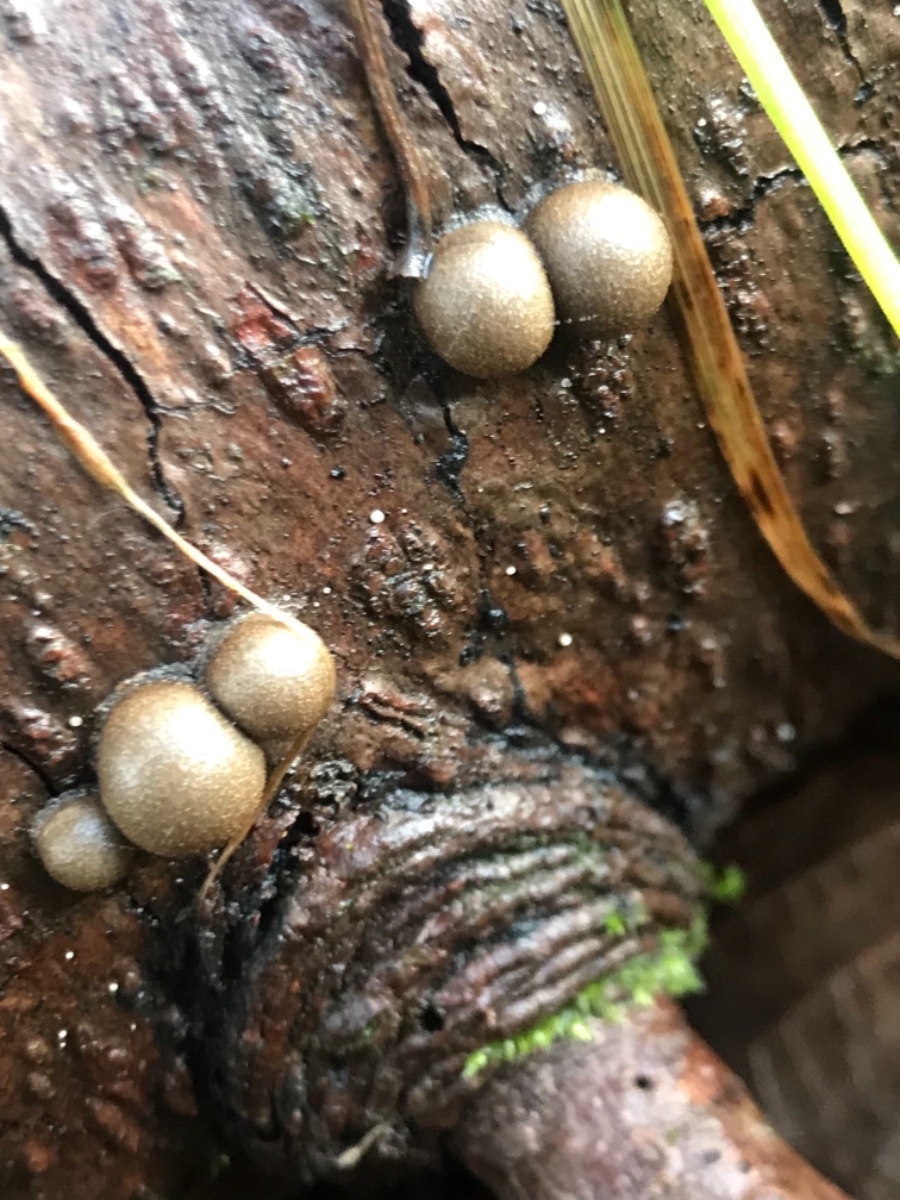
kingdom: Protozoa
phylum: Mycetozoa
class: Myxomycetes
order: Cribrariales
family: Tubiferaceae
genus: Lycogala
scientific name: Lycogala epidendrum
